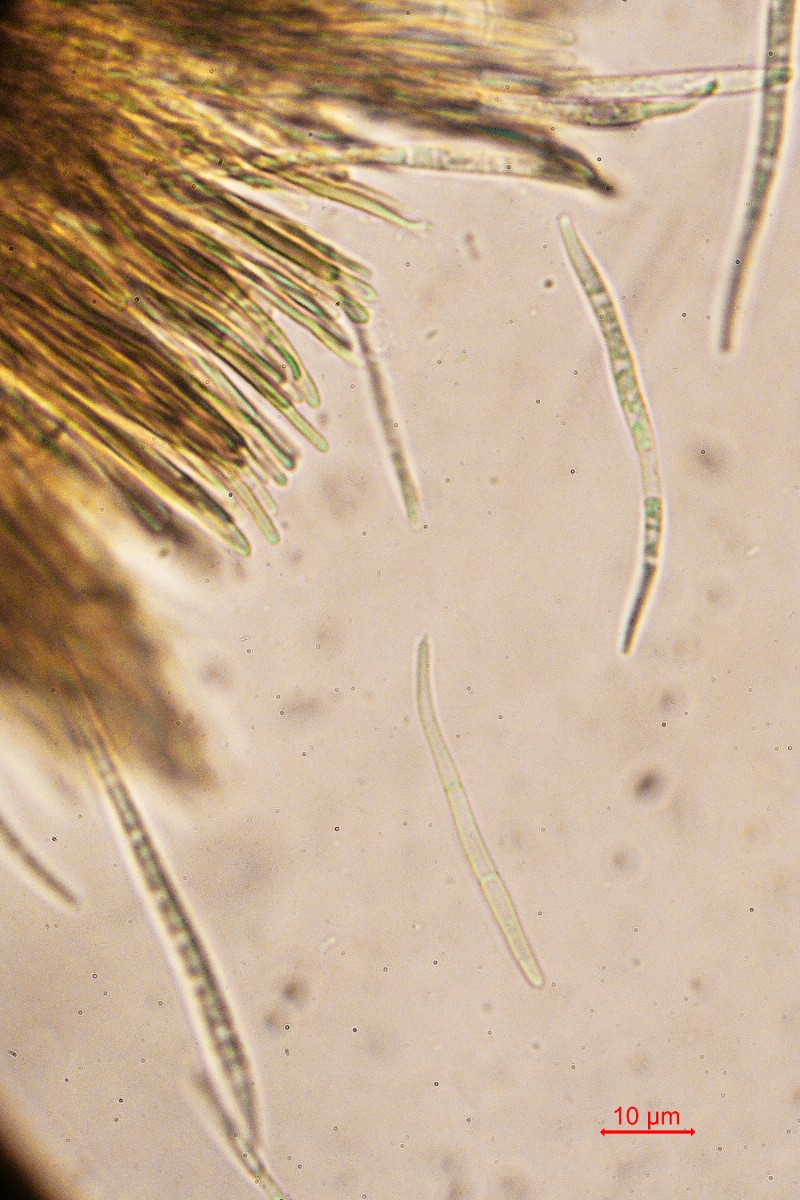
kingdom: Fungi
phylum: Ascomycota
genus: Morrisographium
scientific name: Morrisographium ulmi
